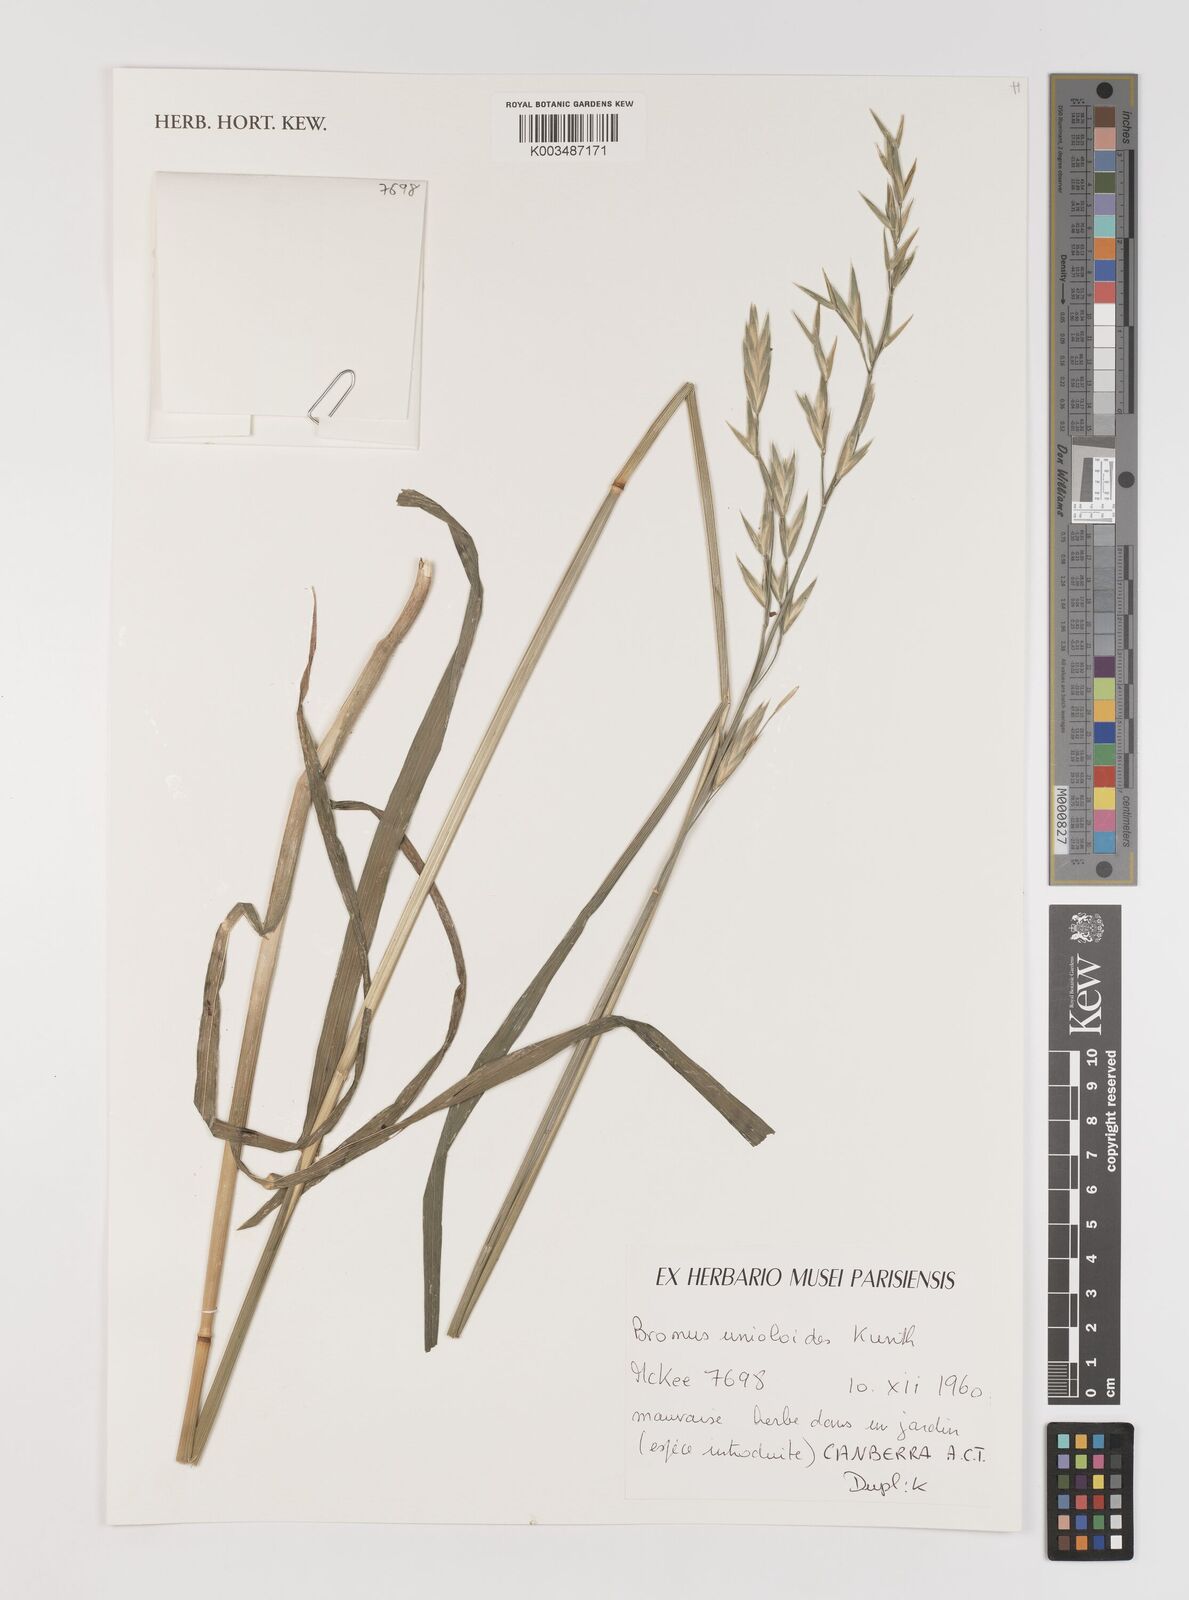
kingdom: Plantae
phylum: Tracheophyta
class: Liliopsida
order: Poales
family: Poaceae
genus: Bromus
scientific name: Bromus catharticus
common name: Rescuegrass
